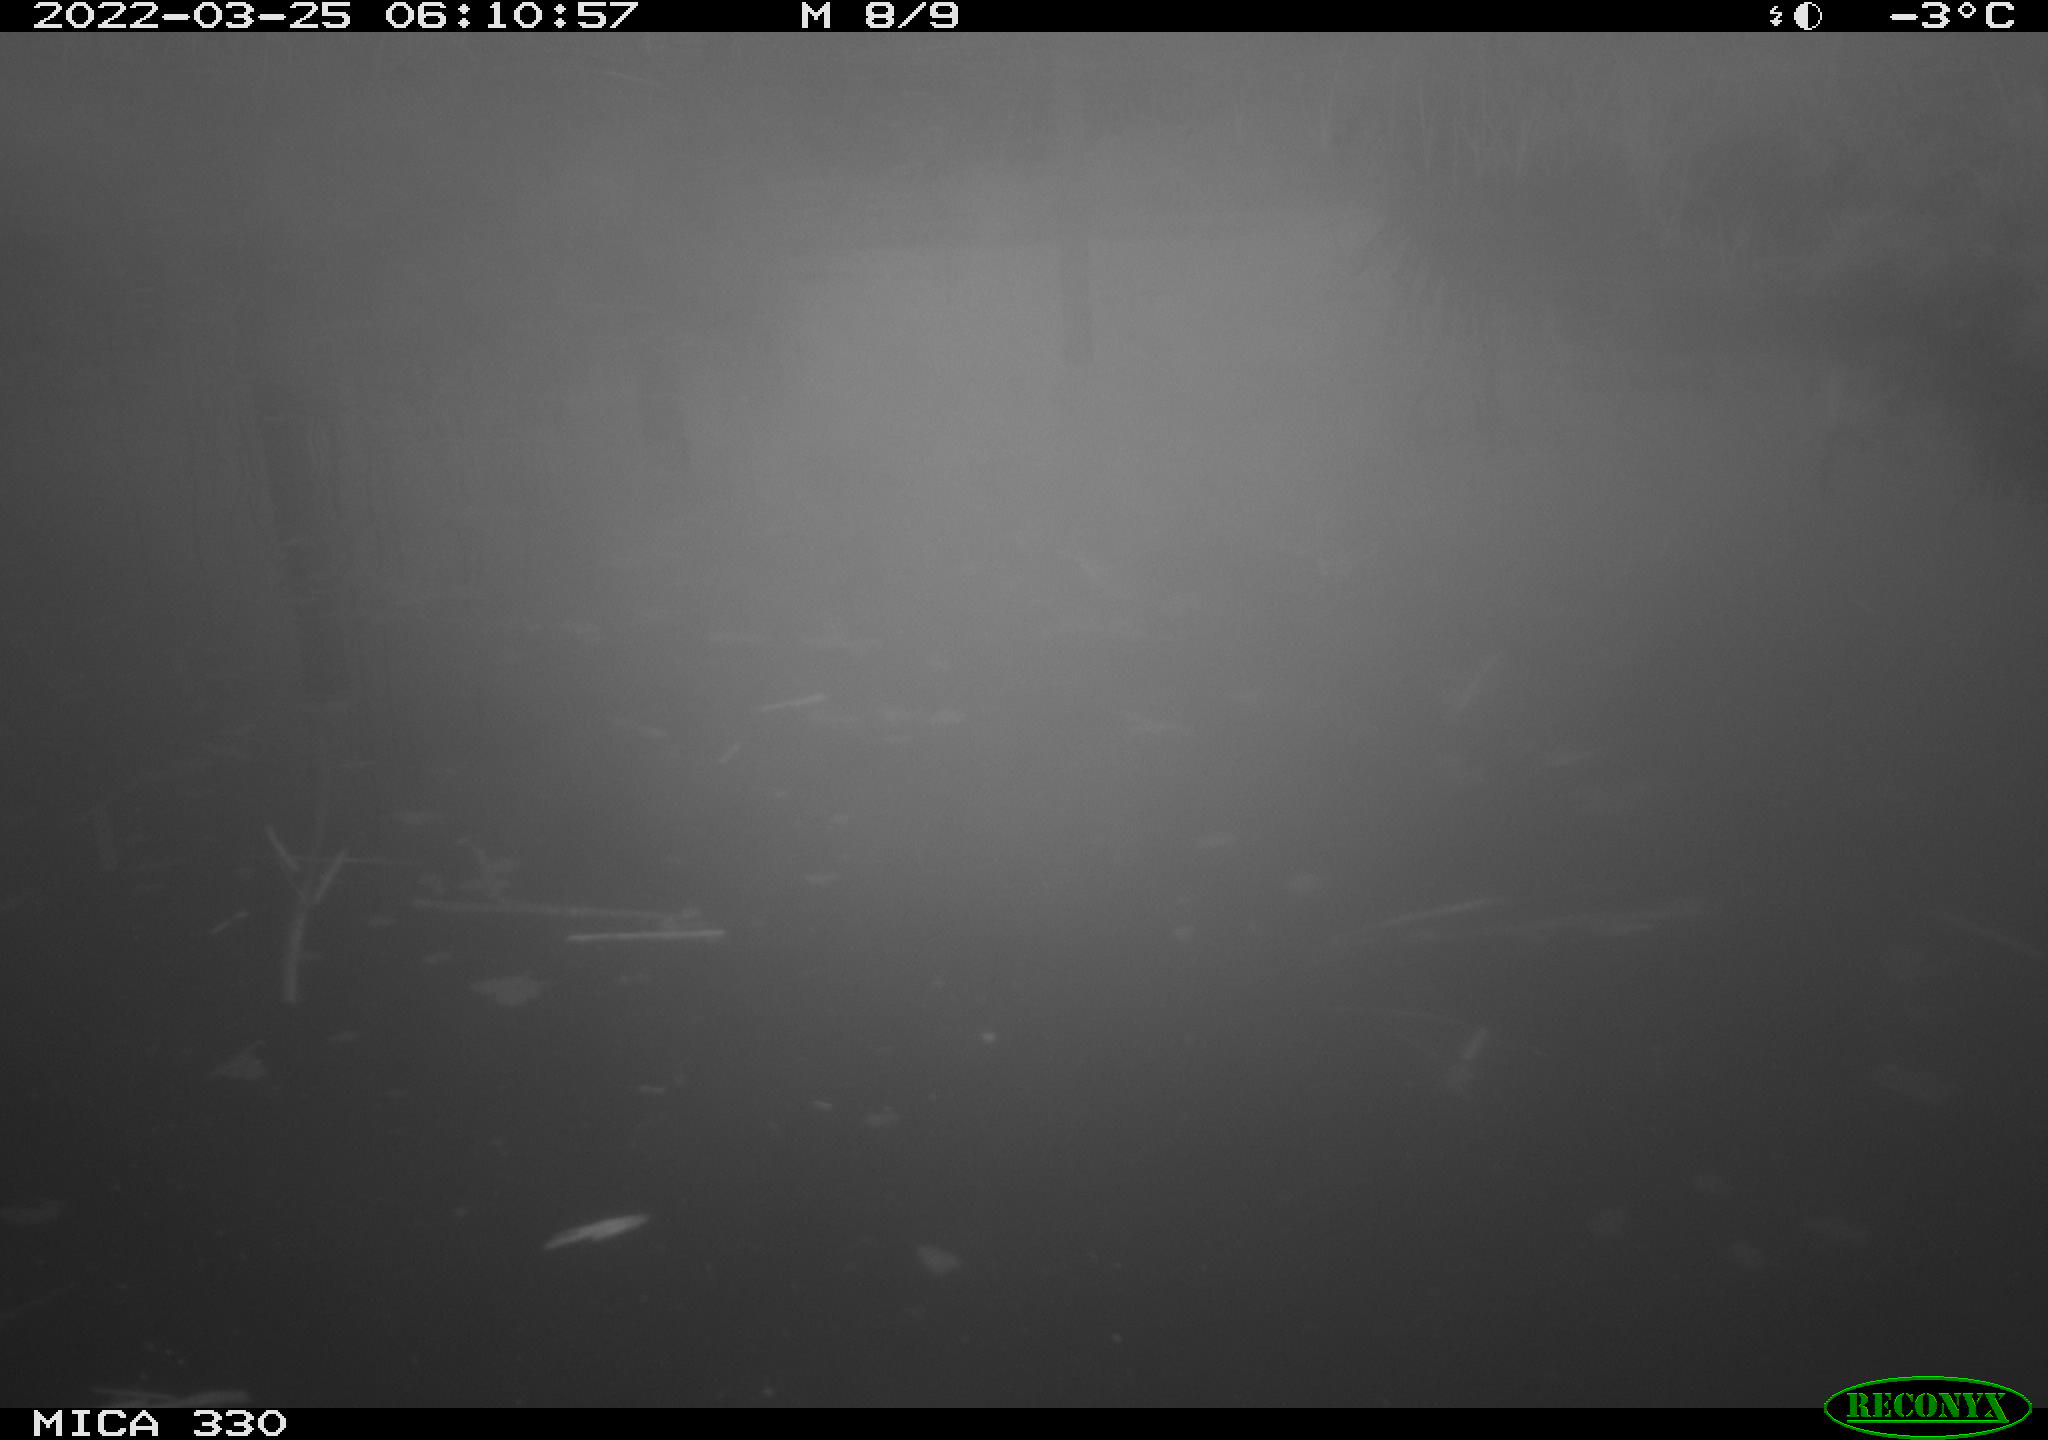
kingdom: Animalia
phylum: Chordata
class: Aves
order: Anseriformes
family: Anatidae
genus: Anas
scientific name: Anas platyrhynchos
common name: Mallard
